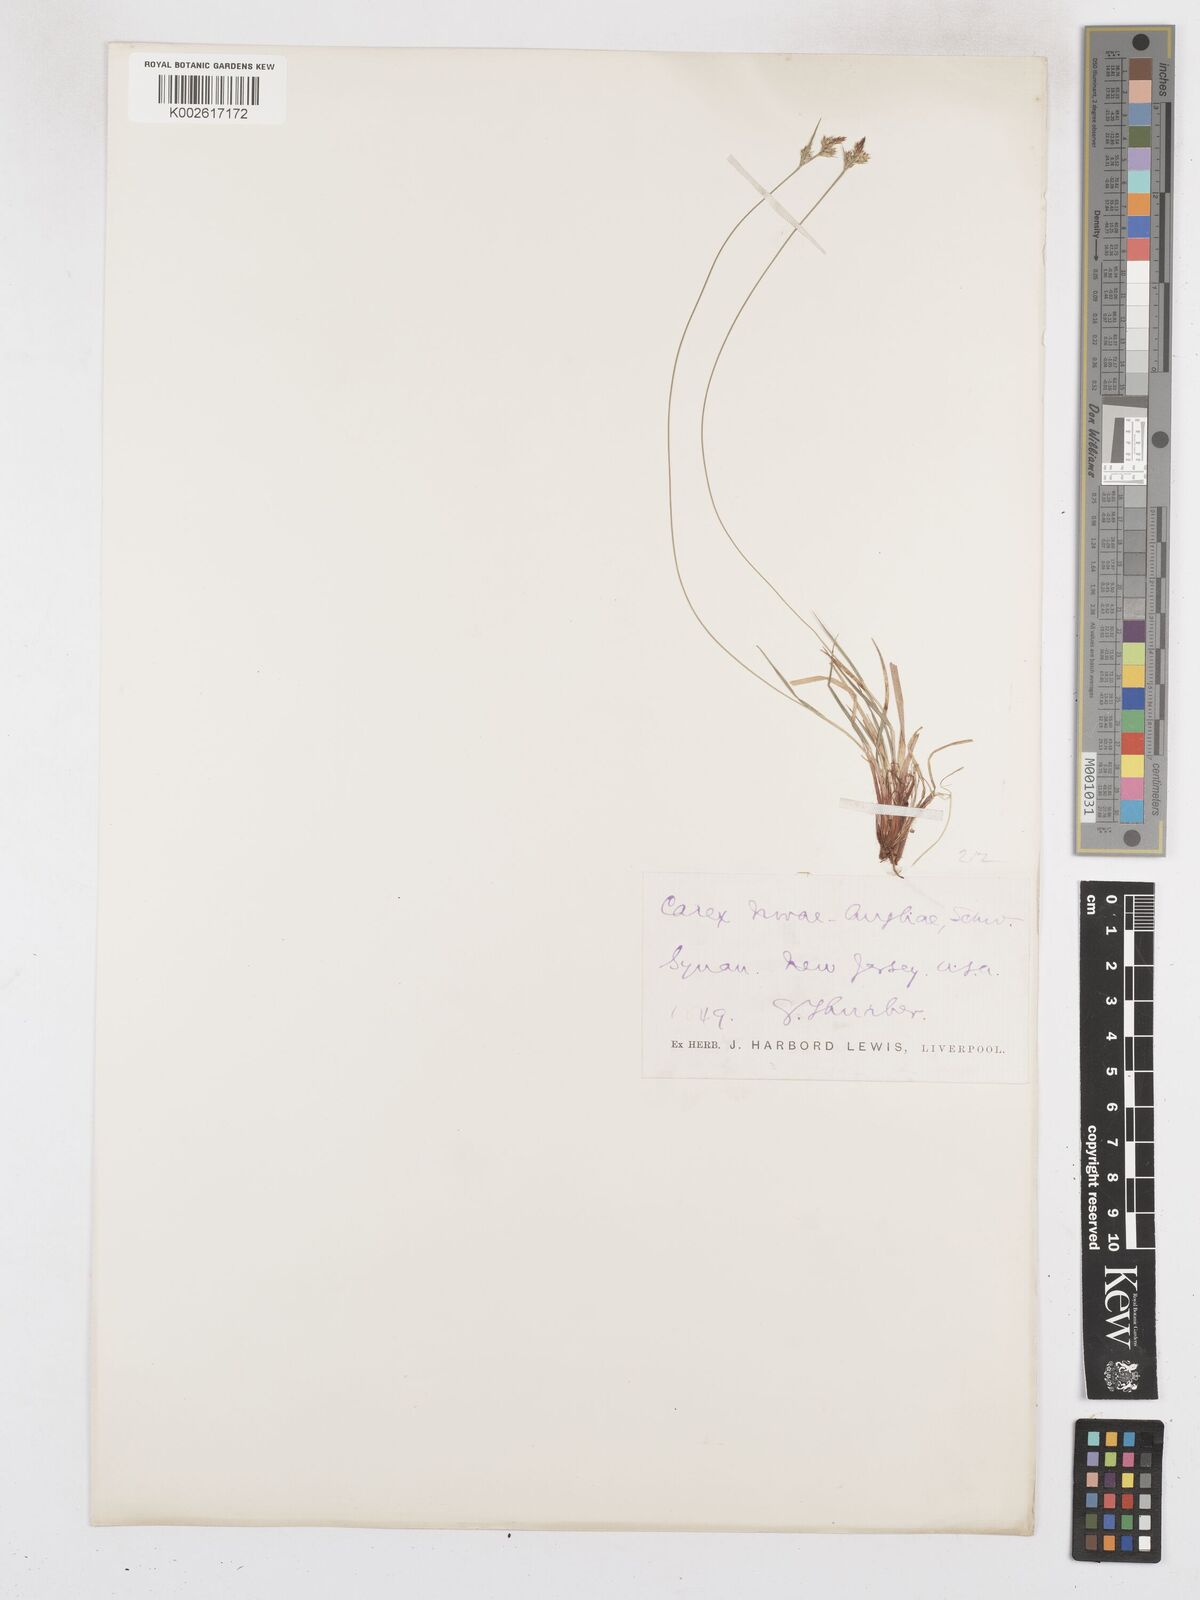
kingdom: Plantae
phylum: Tracheophyta
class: Liliopsida
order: Poales
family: Cyperaceae
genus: Carex
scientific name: Carex novae-angliae
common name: New england sedge
